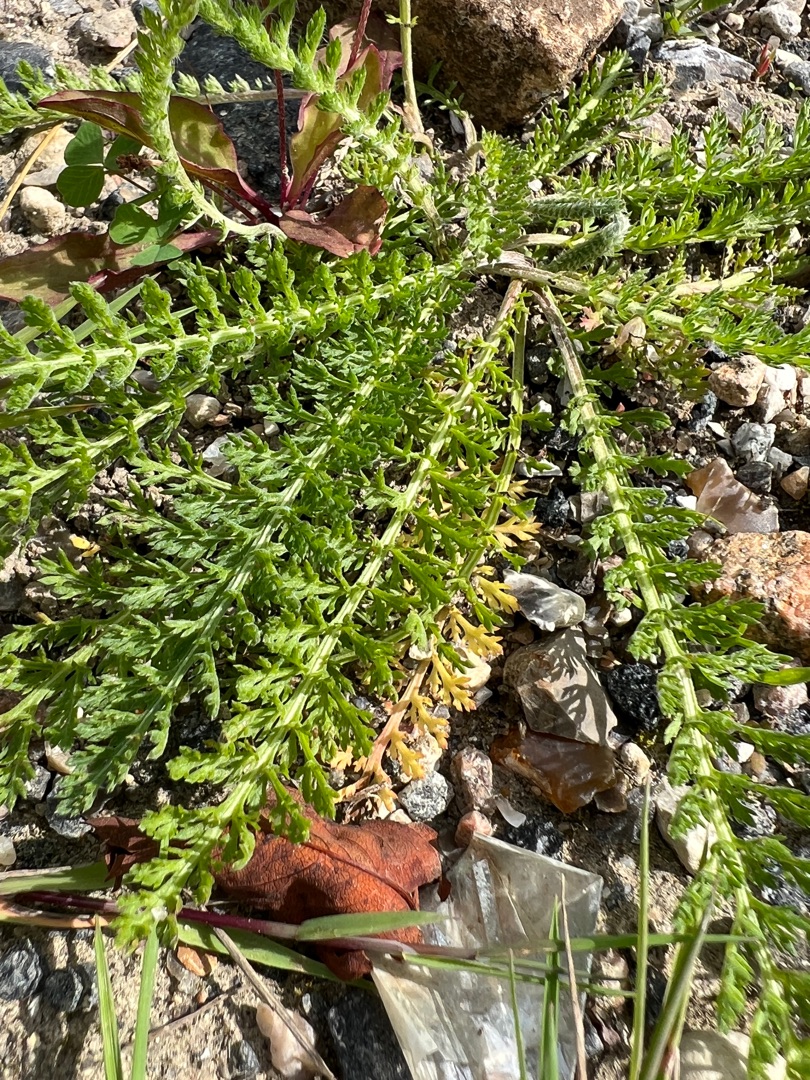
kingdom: Plantae
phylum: Tracheophyta
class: Magnoliopsida
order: Asterales
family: Asteraceae
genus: Achillea
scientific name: Achillea millefolium
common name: Almindelig røllike
